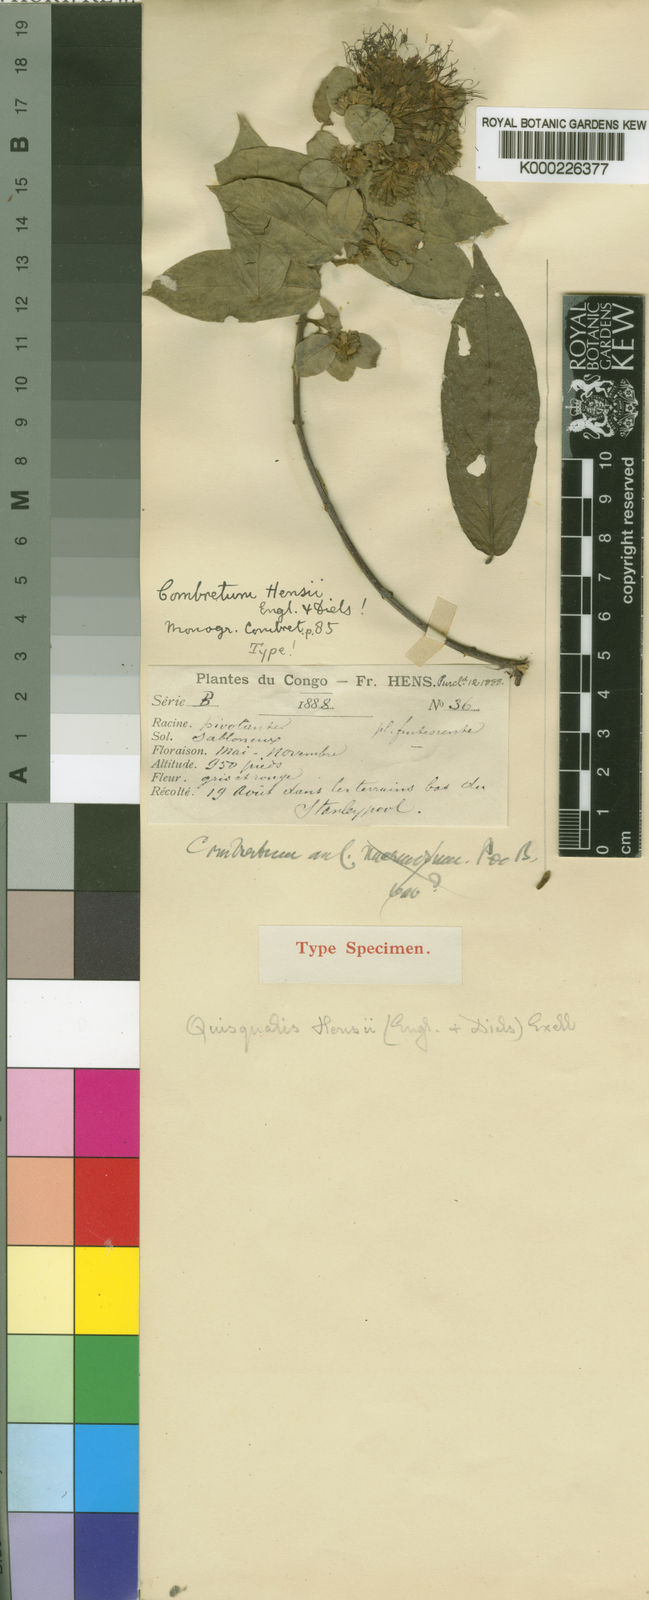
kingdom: Plantae
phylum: Tracheophyta
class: Magnoliopsida
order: Myrtales
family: Combretaceae
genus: Combretum
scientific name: Combretum hensii
